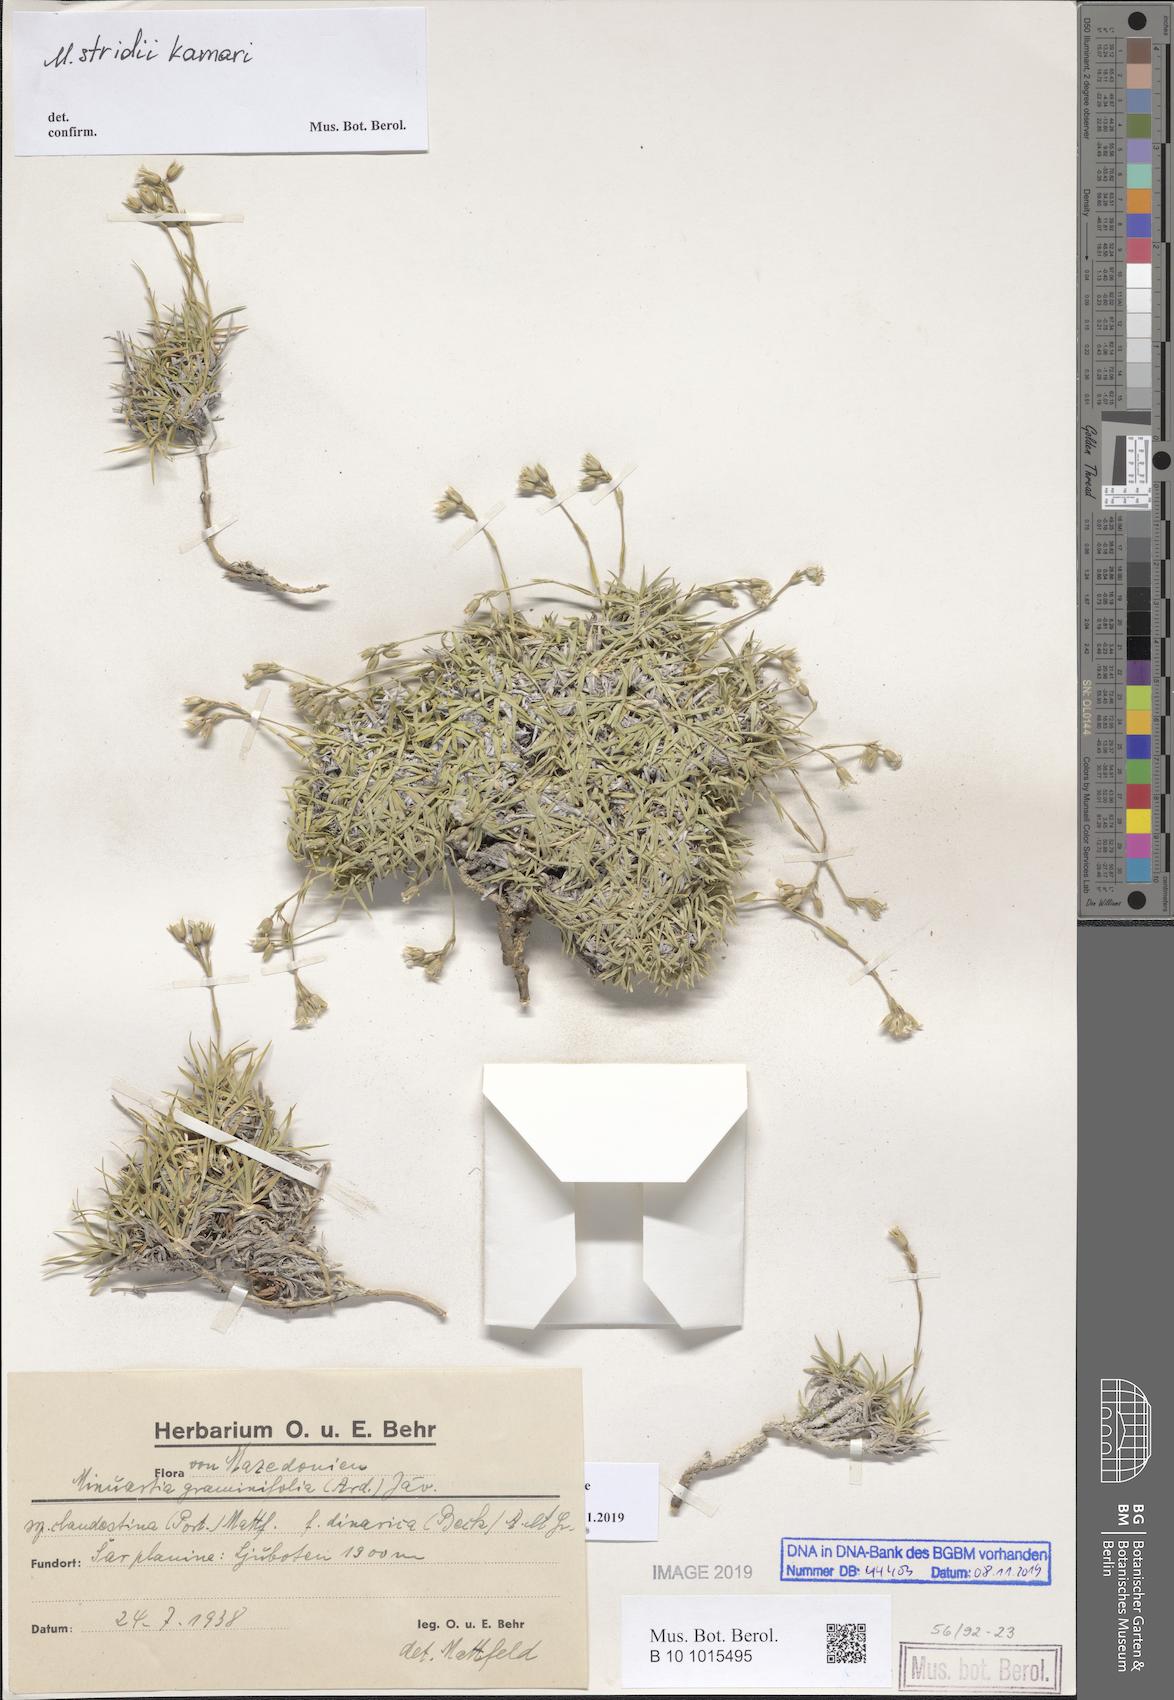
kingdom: Plantae
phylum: Tracheophyta
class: Magnoliopsida
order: Caryophyllales
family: Caryophyllaceae
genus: Minuartia
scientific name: Minuartia
